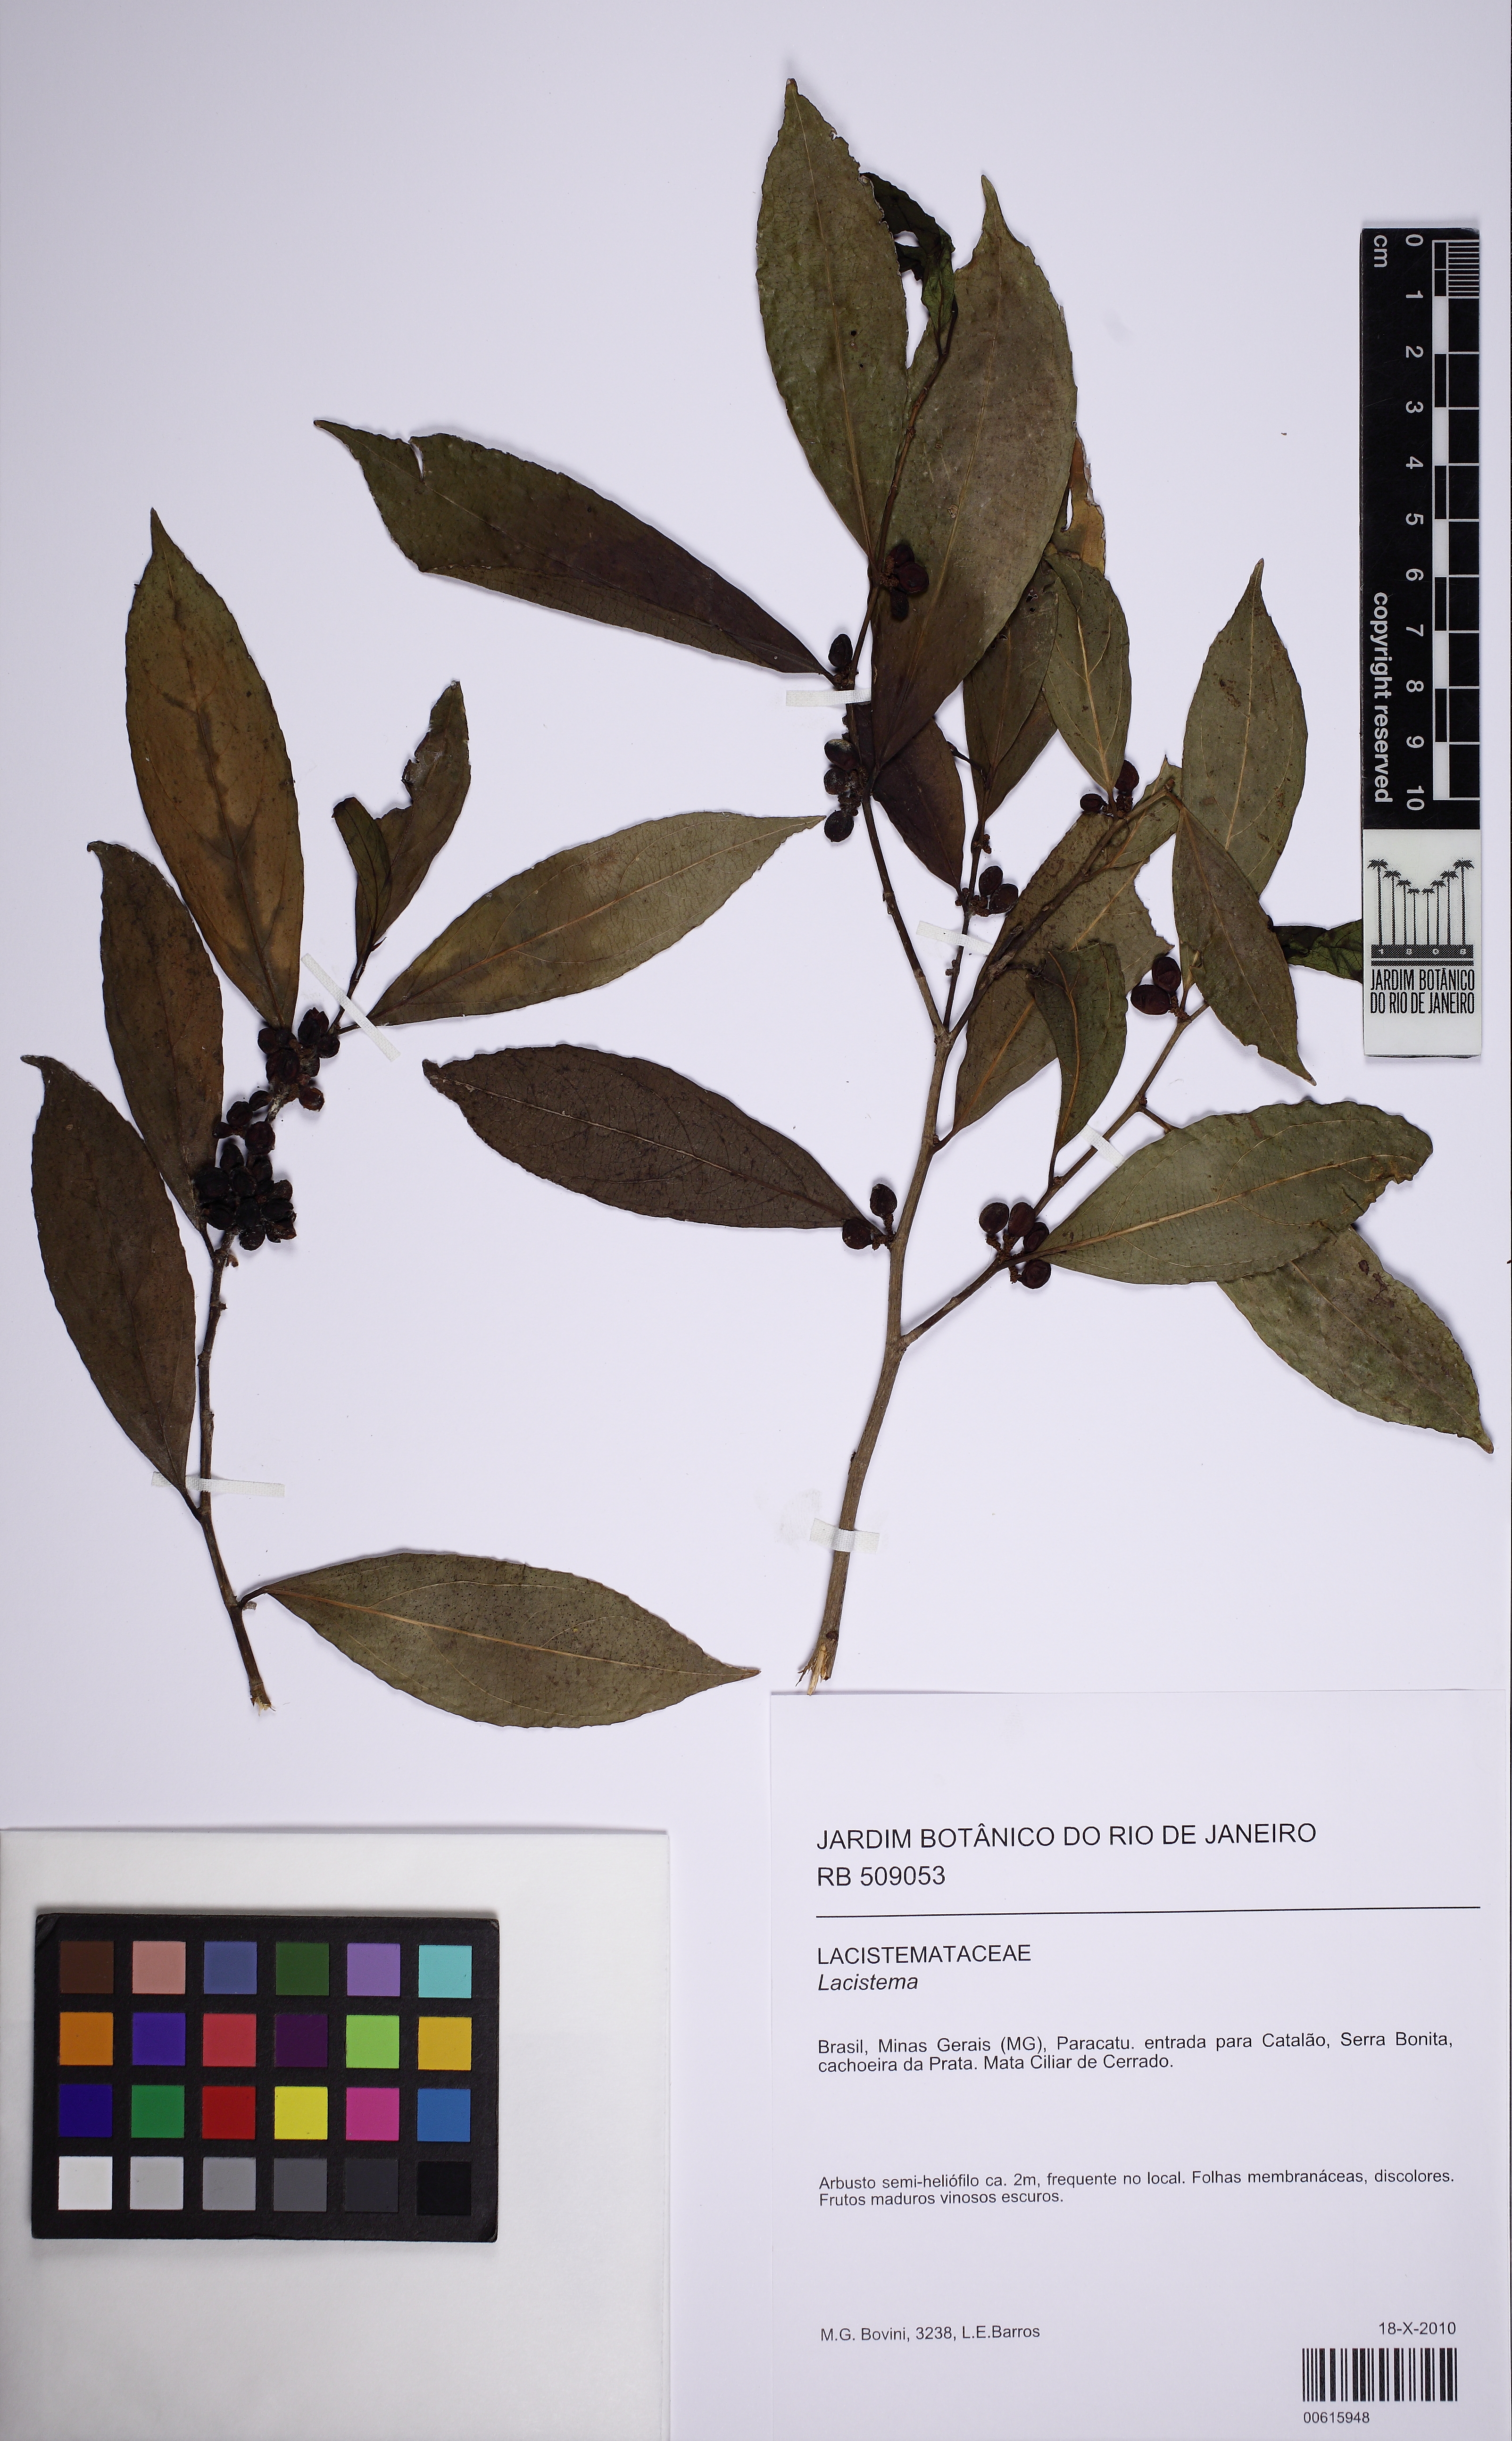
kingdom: Plantae
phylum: Tracheophyta
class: Magnoliopsida
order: Malpighiales
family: Lacistemataceae
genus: Lacistema
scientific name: Lacistema
